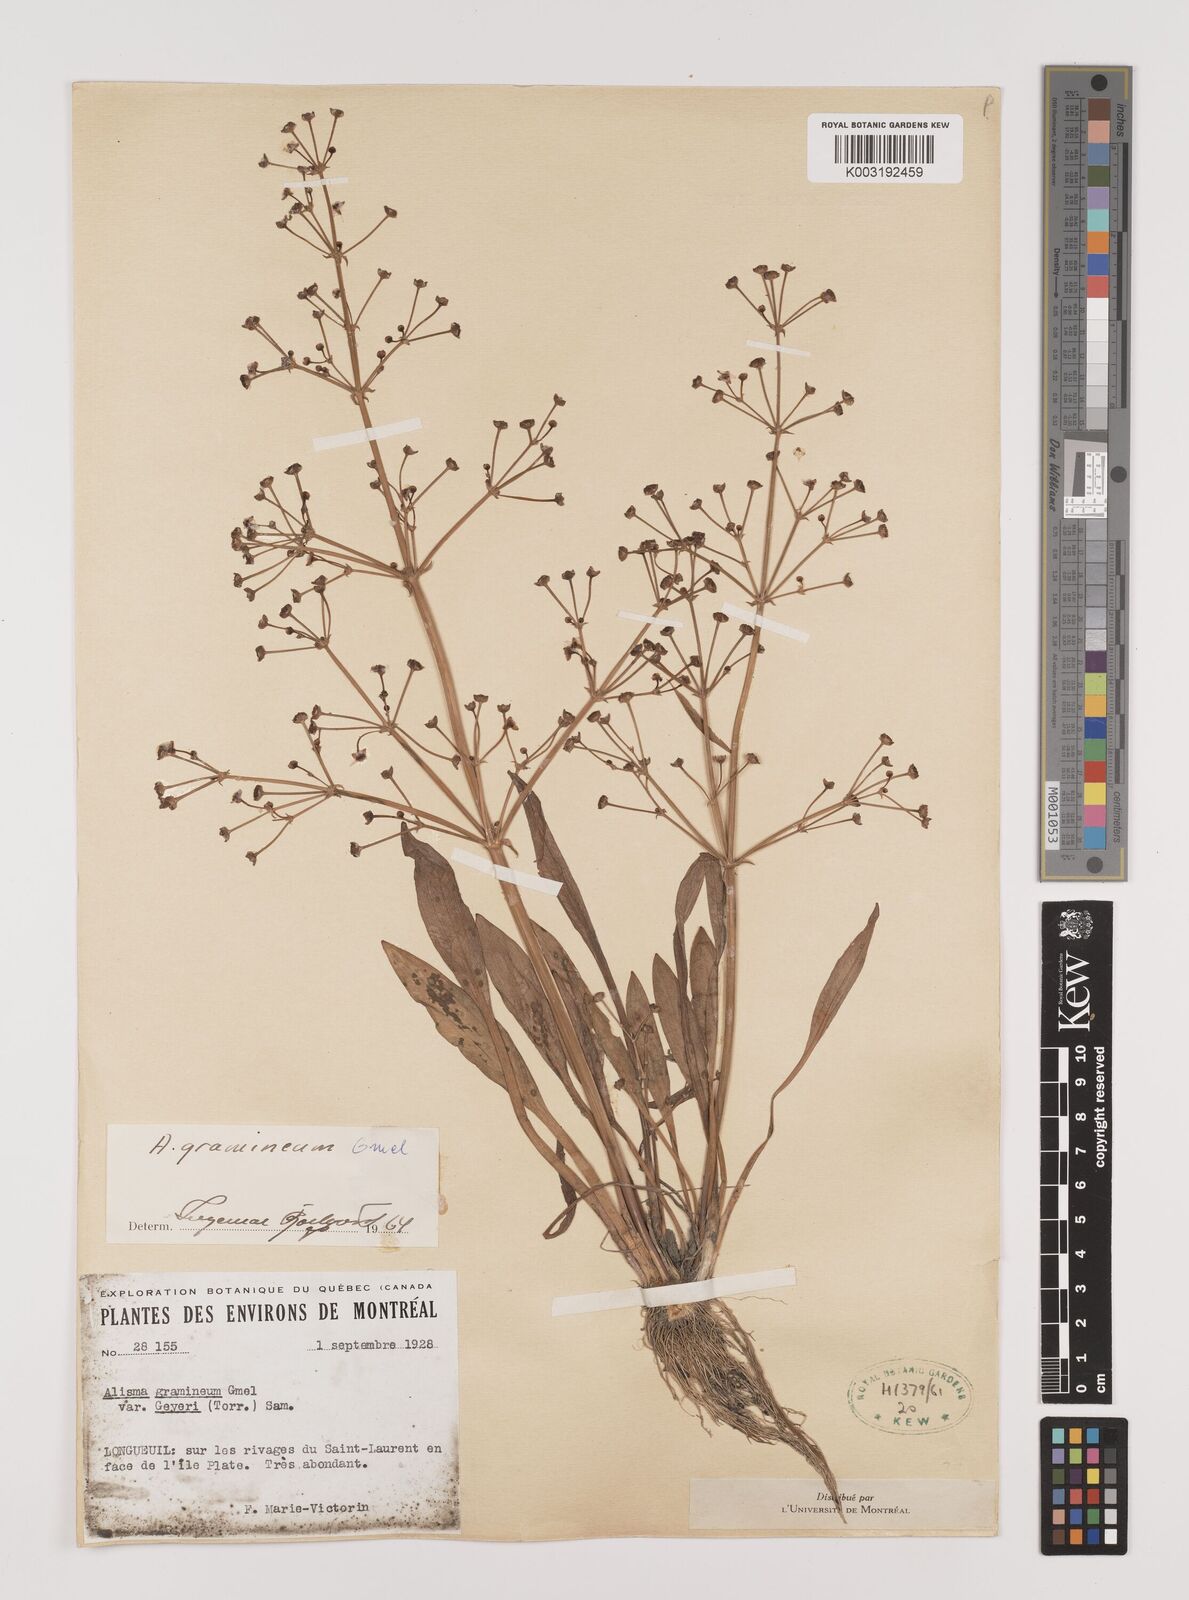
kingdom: Plantae
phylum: Tracheophyta
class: Liliopsida
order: Alismatales
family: Alismataceae
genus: Alisma
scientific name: Alisma gramineum
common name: Ribbon-leaved water-plantain
